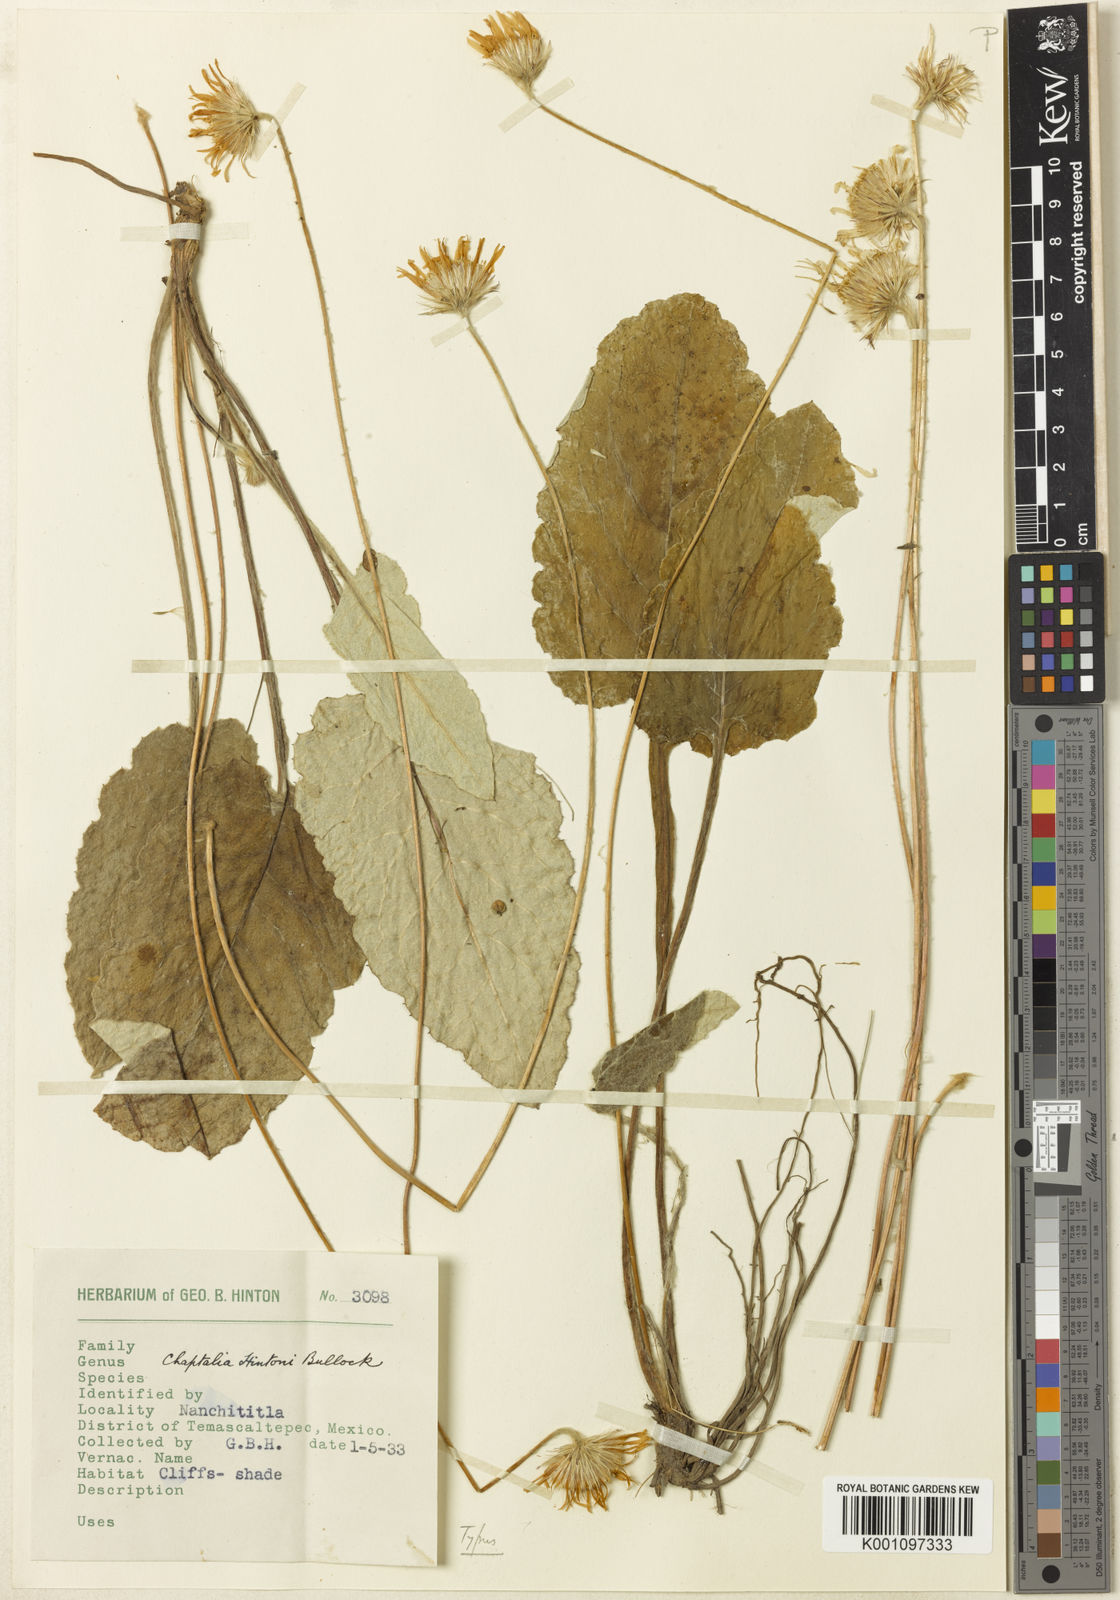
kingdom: Plantae
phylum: Tracheophyta
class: Magnoliopsida
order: Asterales
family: Asteraceae
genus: Chaptalia
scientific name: Chaptalia hintonii
